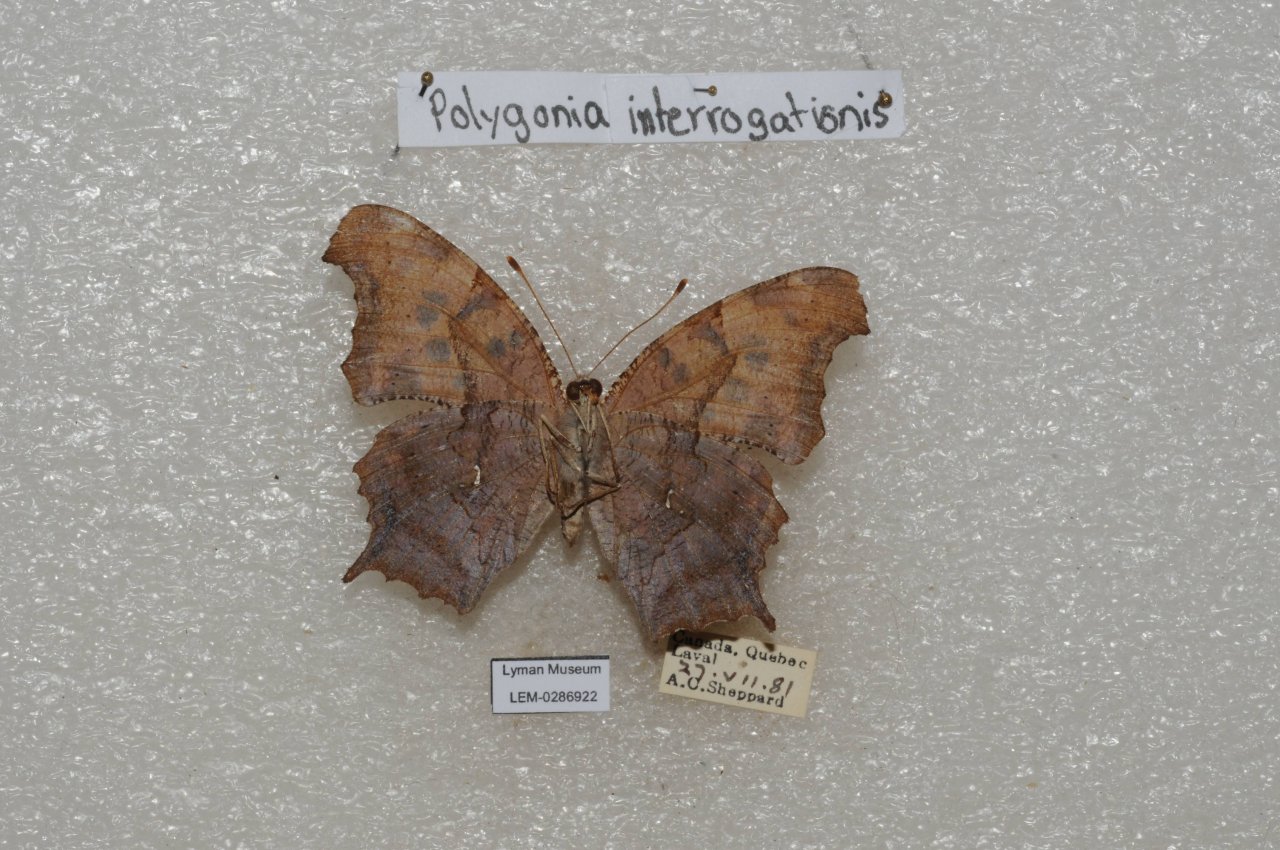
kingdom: Animalia
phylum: Arthropoda
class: Insecta
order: Lepidoptera
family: Nymphalidae
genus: Polygonia
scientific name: Polygonia interrogationis
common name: Question Mark
